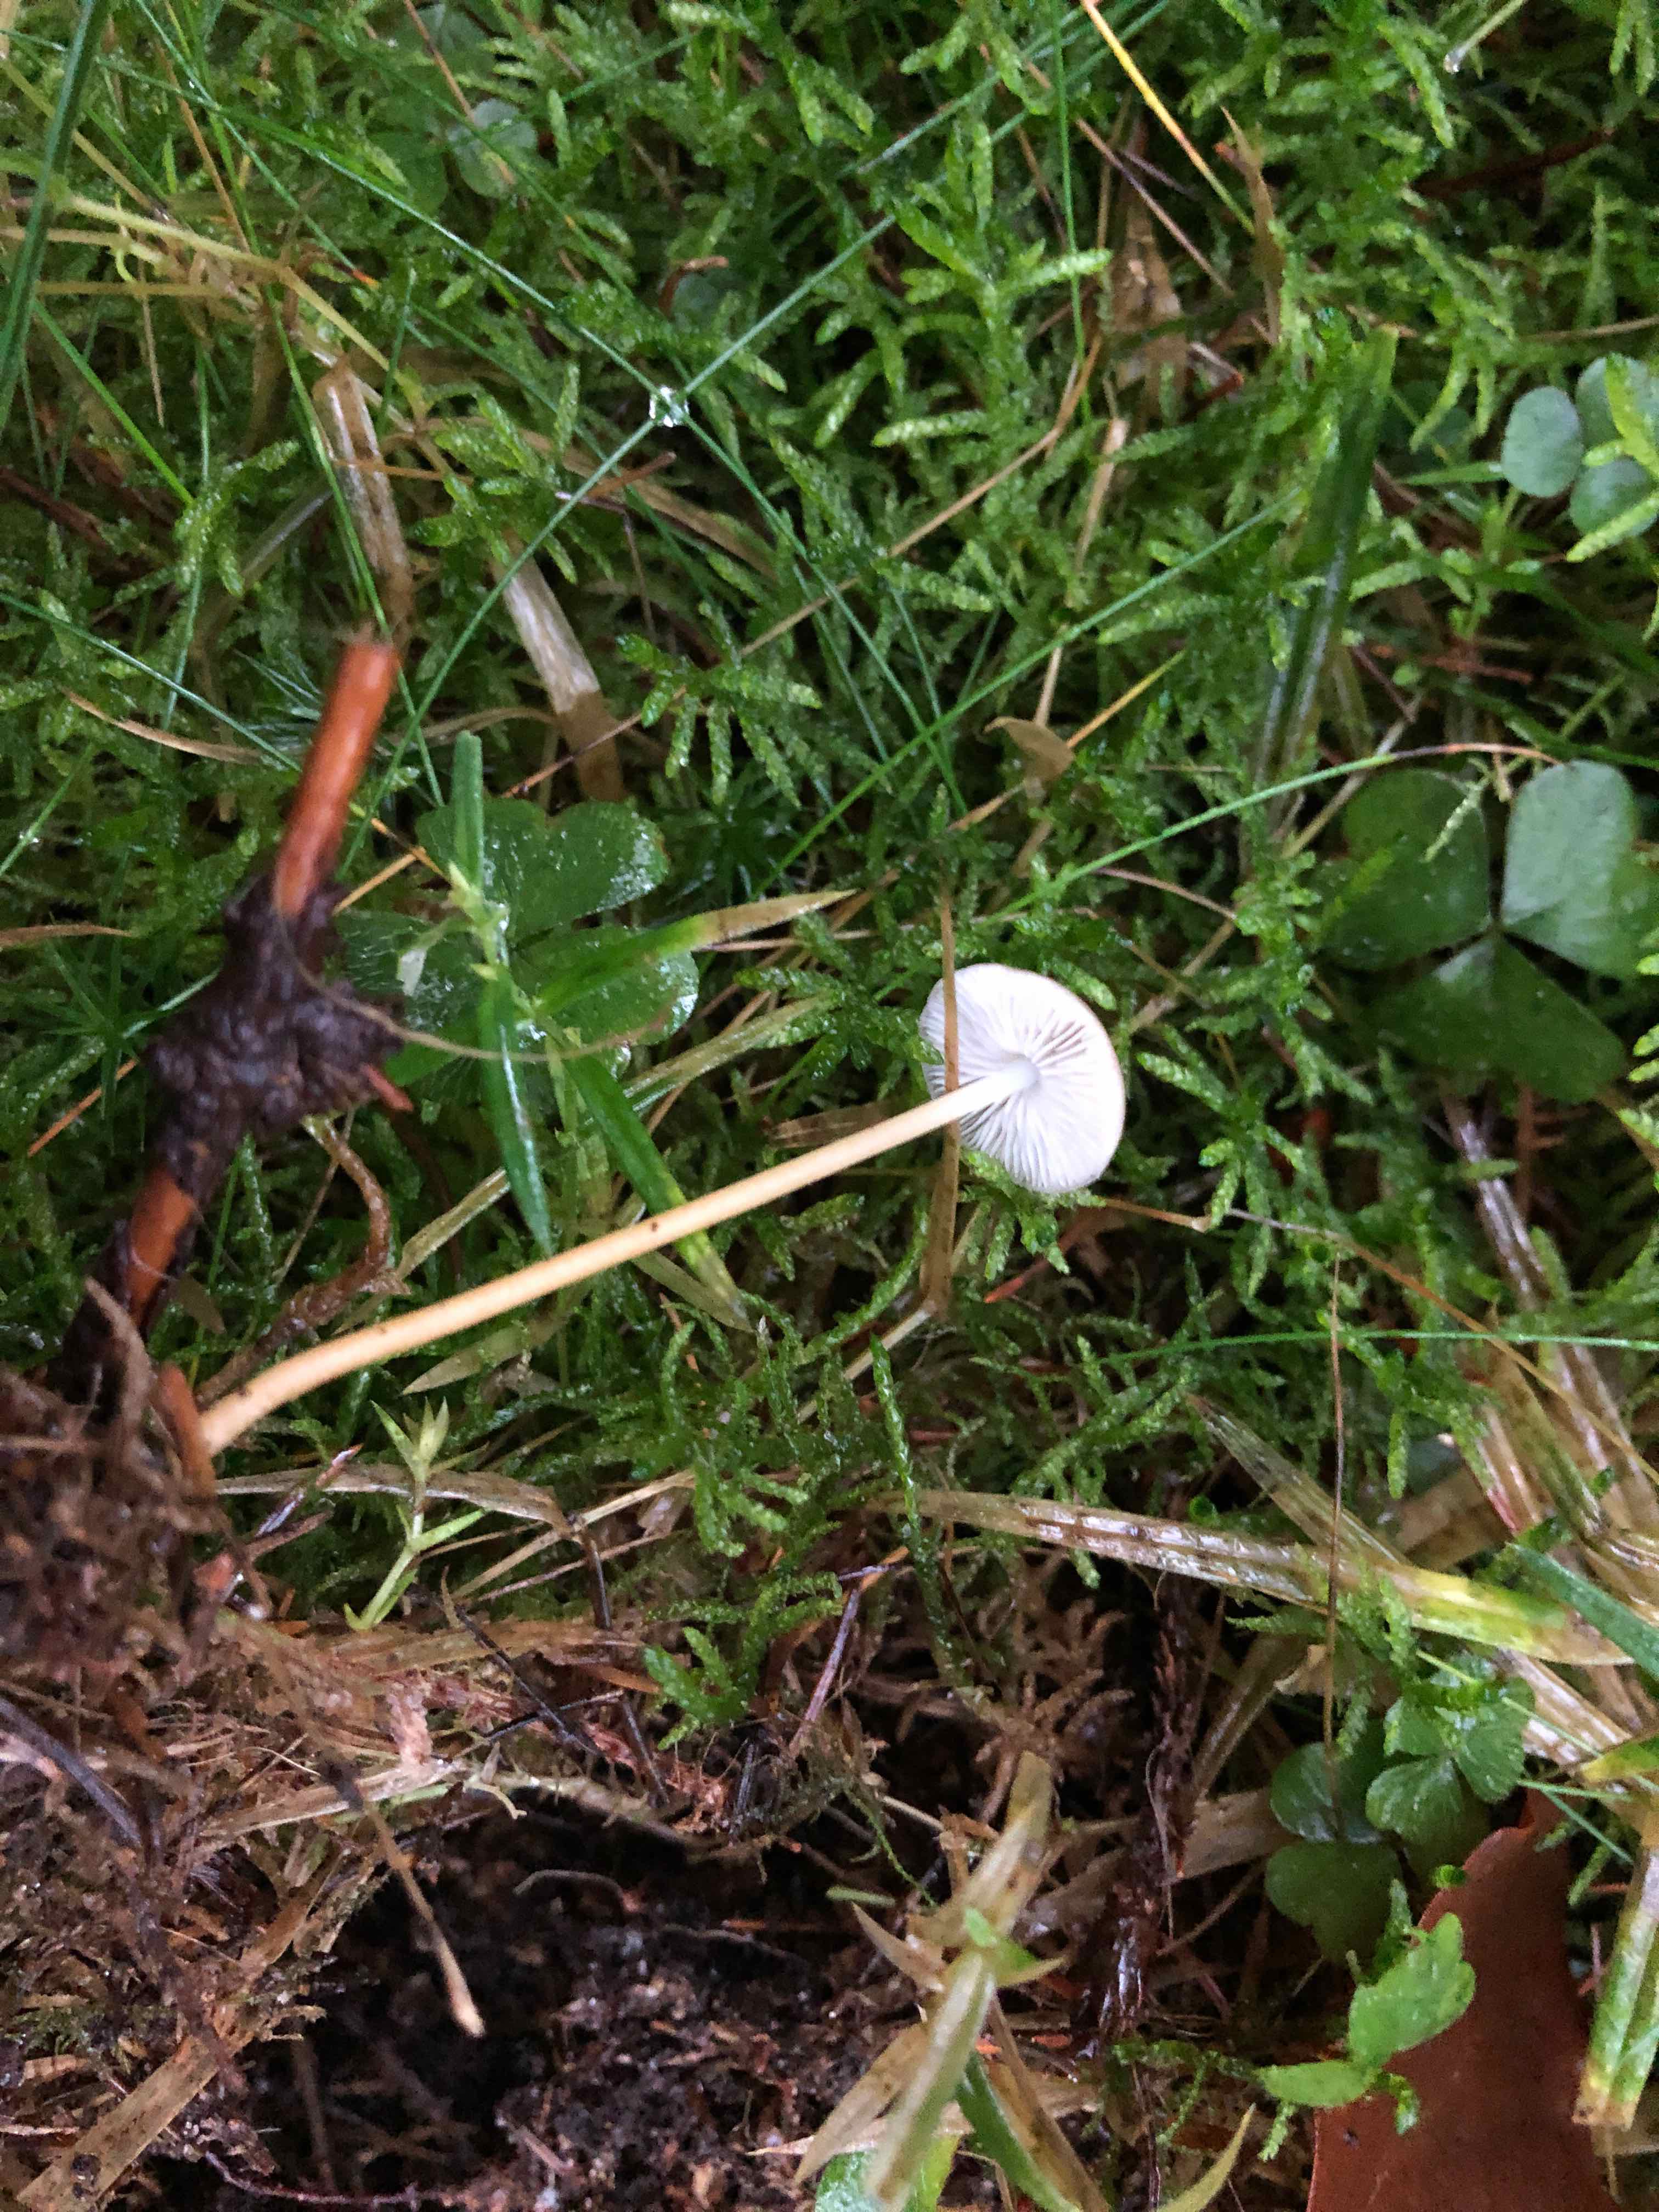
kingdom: Fungi
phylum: Basidiomycota
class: Agaricomycetes
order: Agaricales
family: Physalacriaceae
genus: Strobilurus
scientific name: Strobilurus esculentus
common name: gran-koglehat
